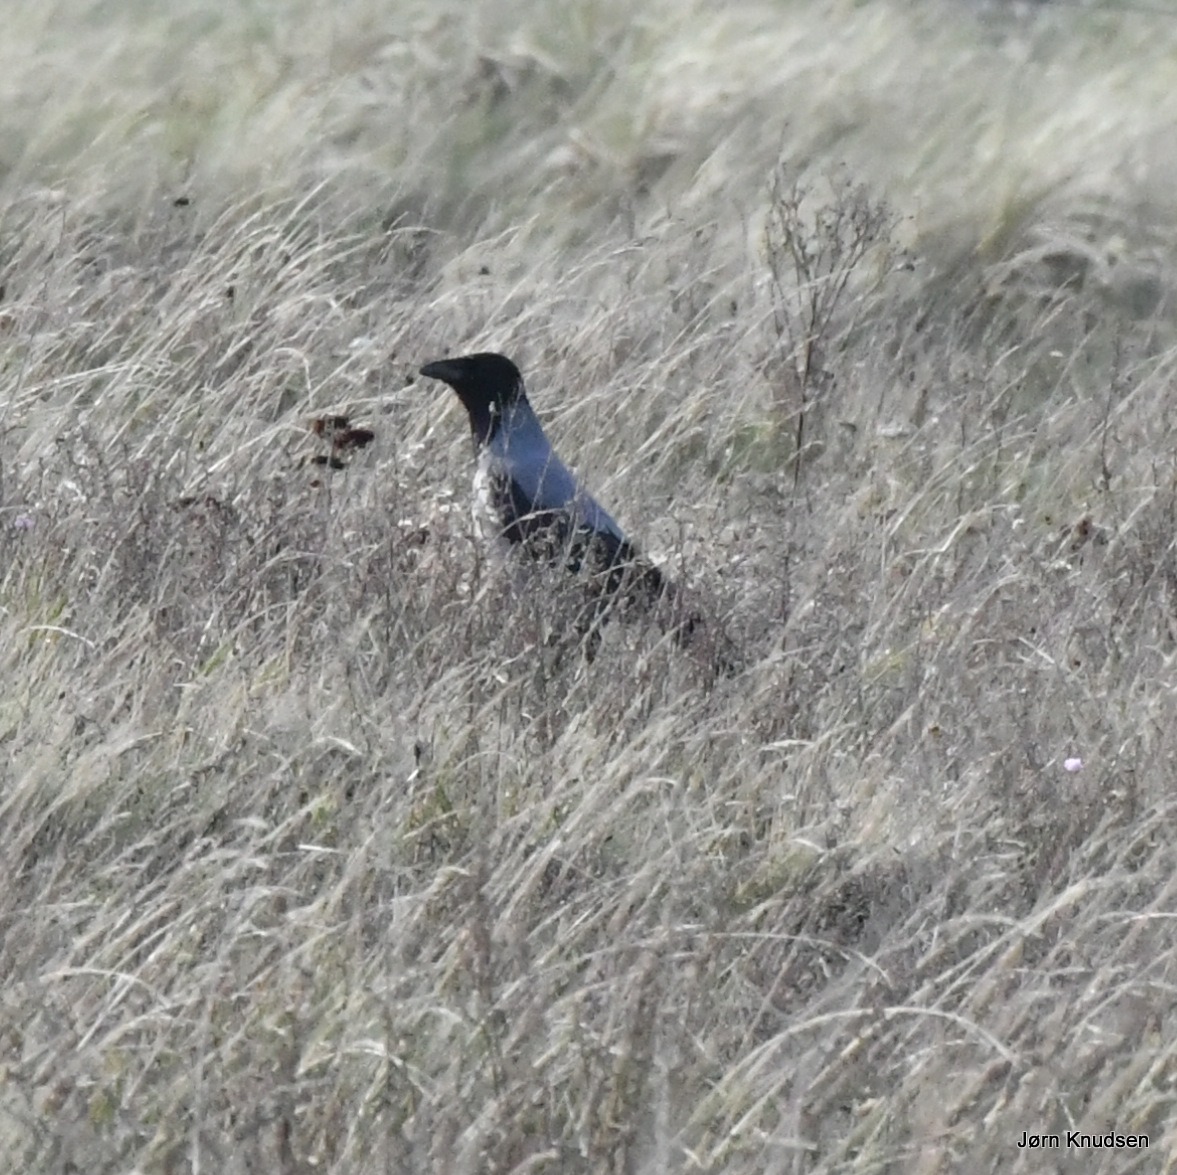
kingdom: Animalia
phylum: Chordata
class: Aves
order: Passeriformes
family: Corvidae
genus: Corvus
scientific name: Corvus cornix
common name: Gråkrage
